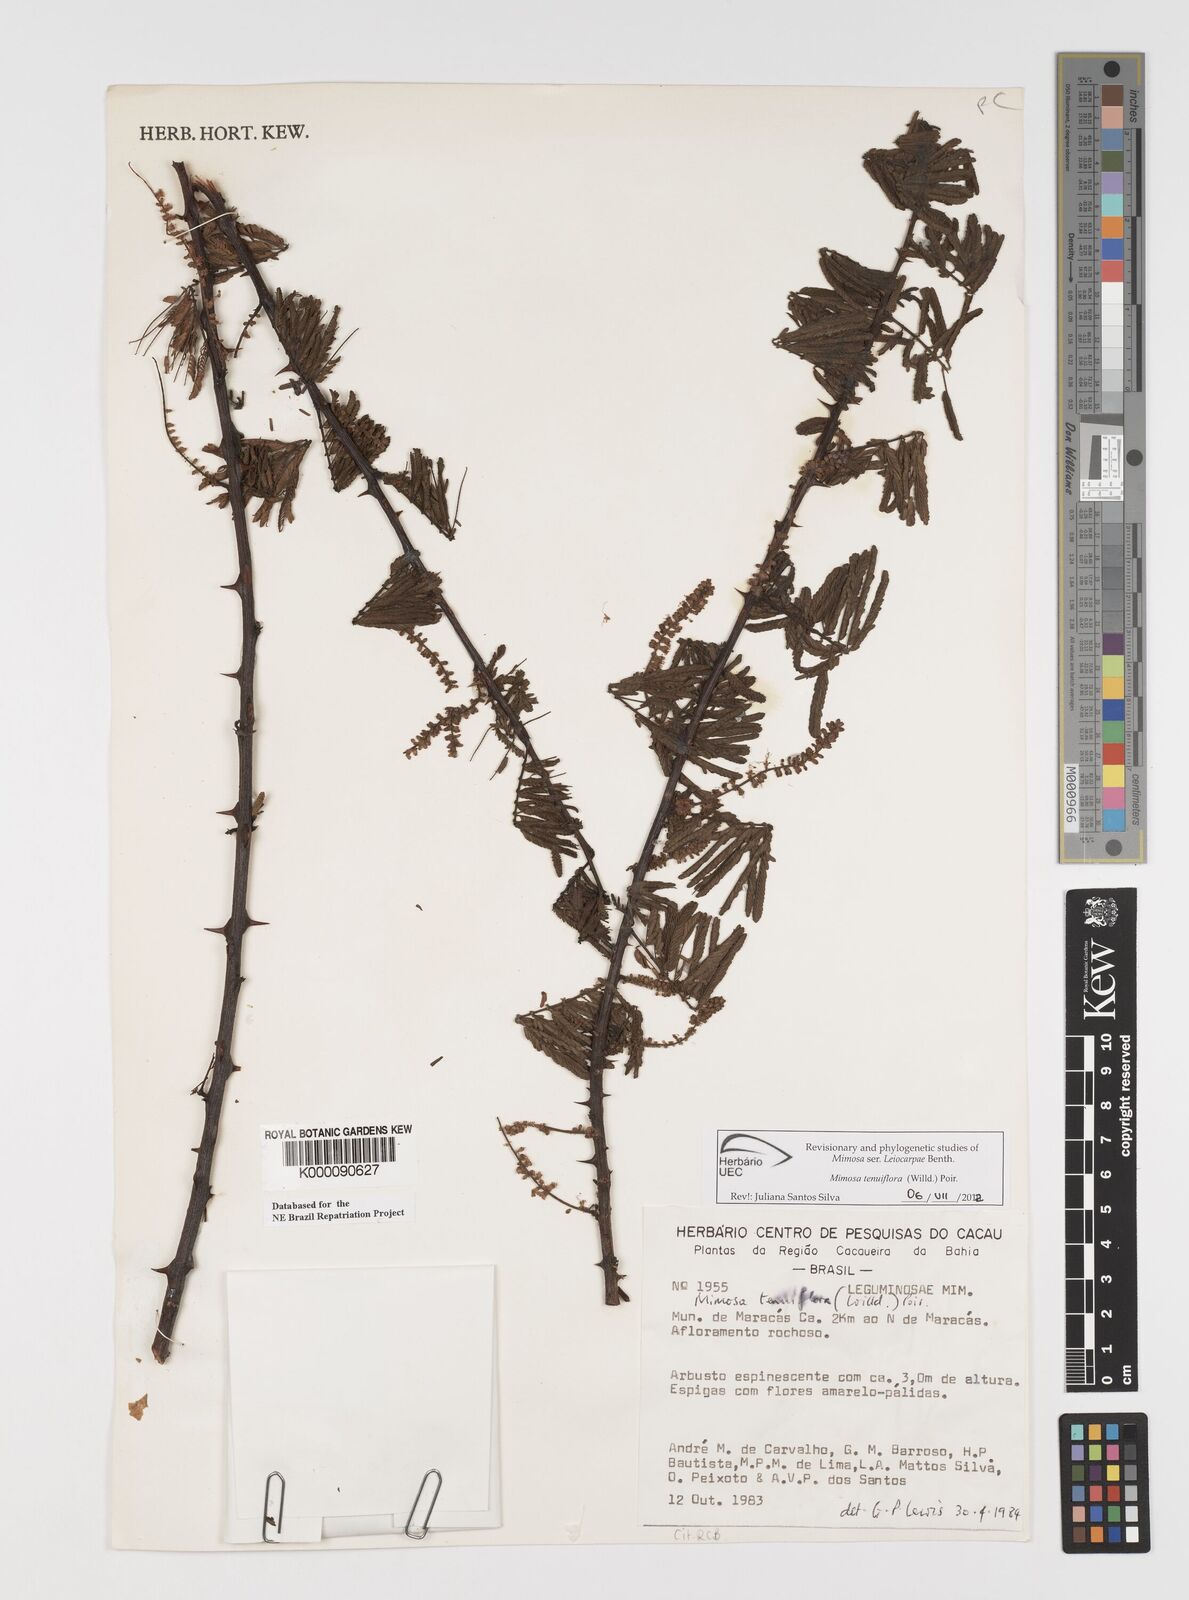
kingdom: Plantae
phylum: Tracheophyta
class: Magnoliopsida
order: Fabales
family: Fabaceae
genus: Mimosa
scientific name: Mimosa tenuiflora
